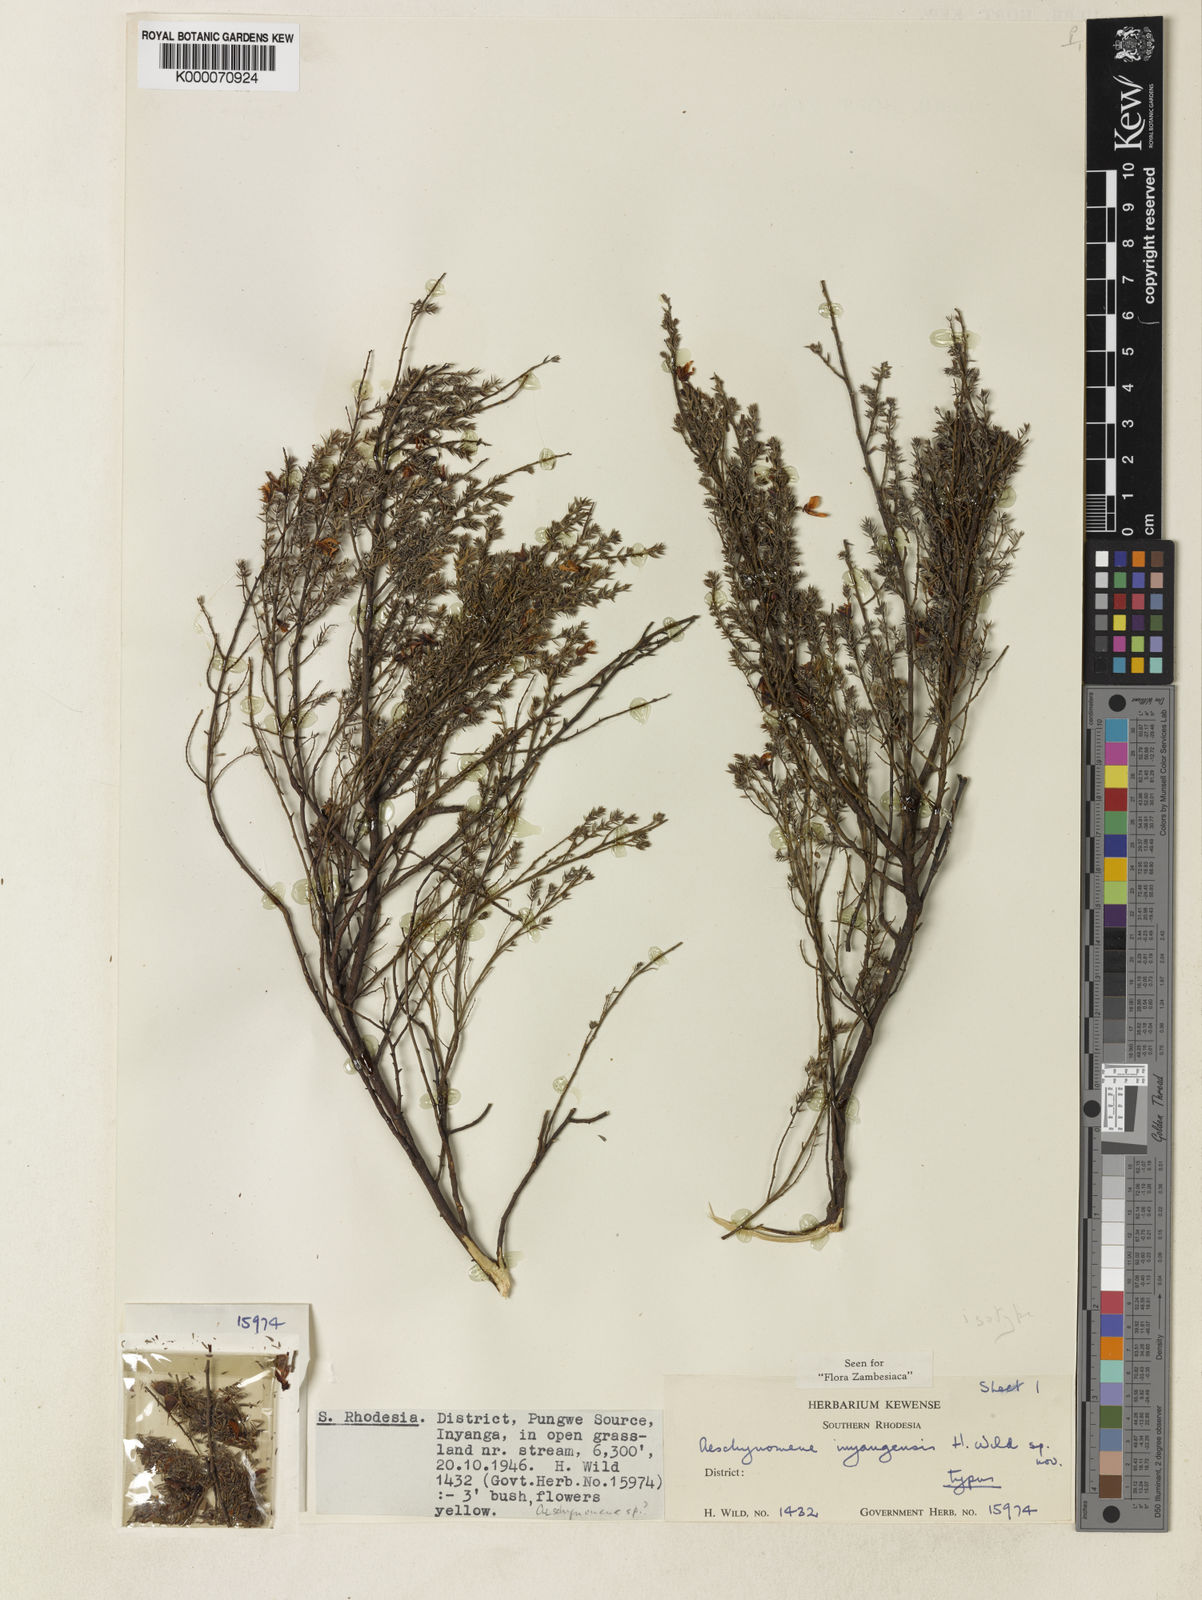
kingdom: Plantae
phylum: Tracheophyta
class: Magnoliopsida
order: Fabales
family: Fabaceae
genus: Aeschynomene
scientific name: Aeschynomene inyangensis
